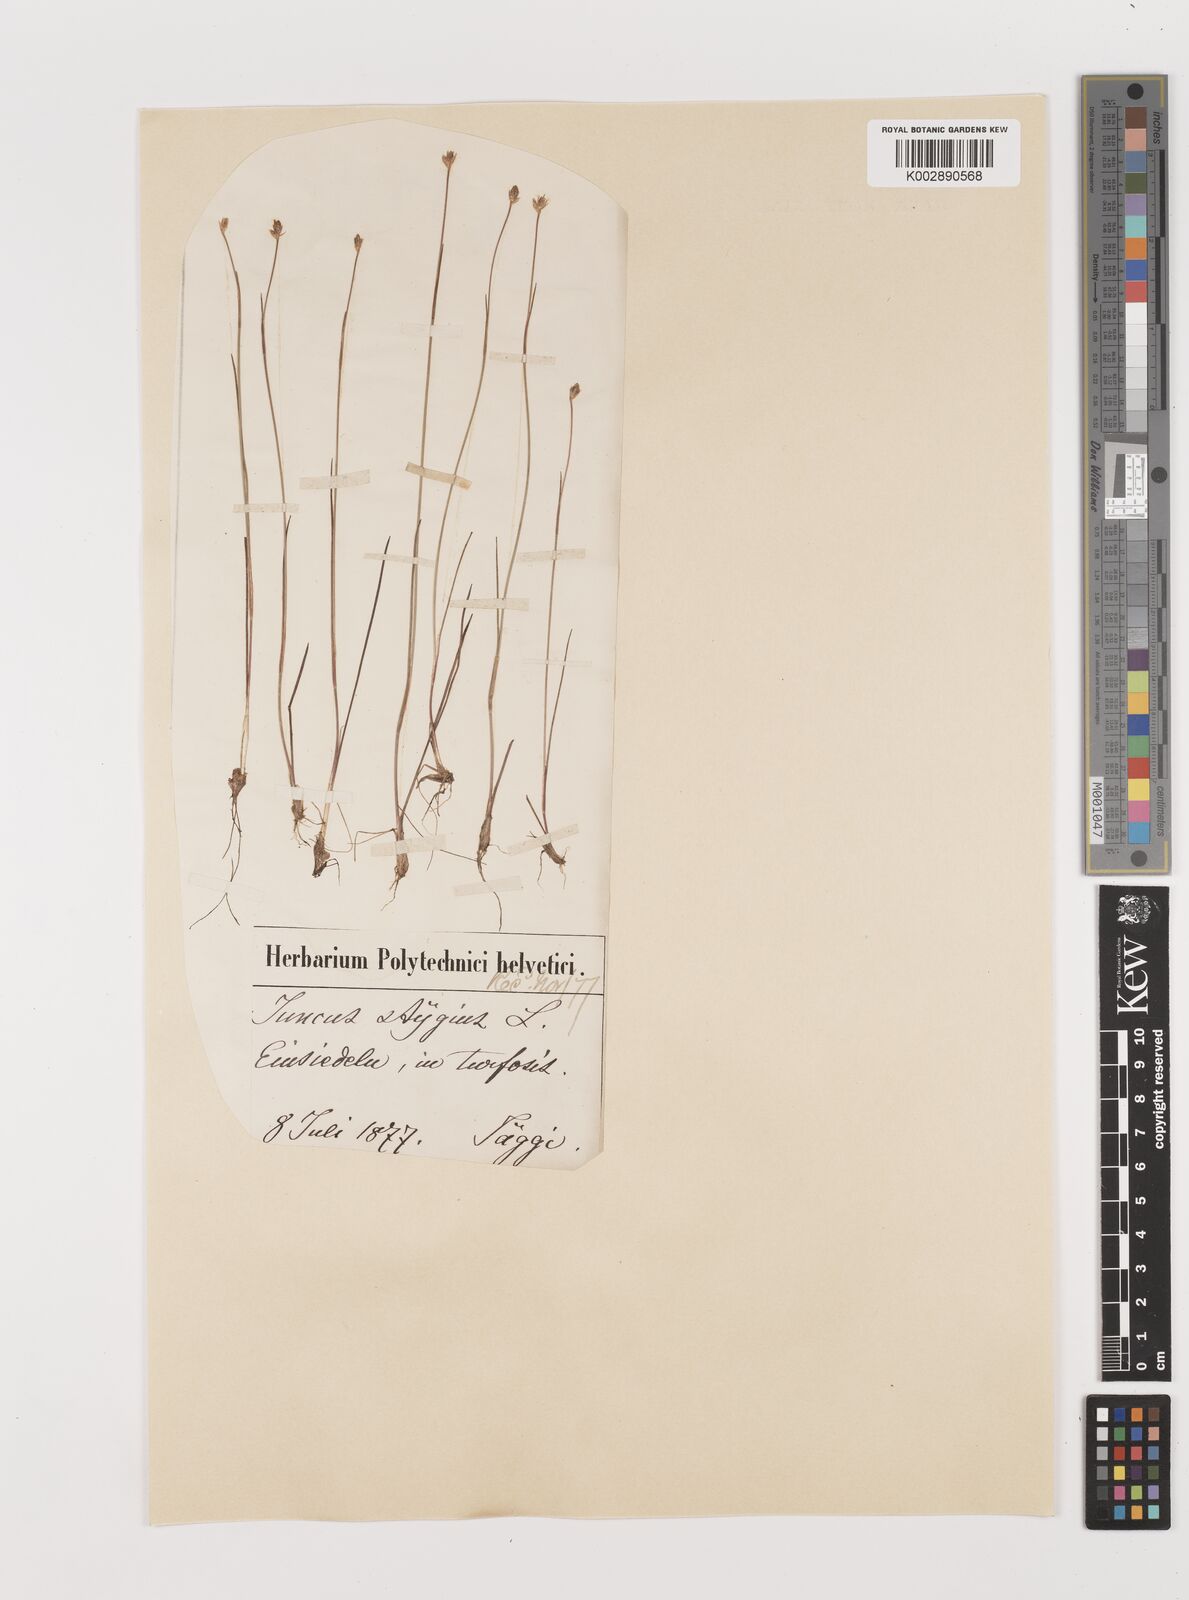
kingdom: Plantae
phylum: Tracheophyta
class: Liliopsida
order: Poales
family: Juncaceae
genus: Juncus
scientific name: Juncus stygius
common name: Bog rush
